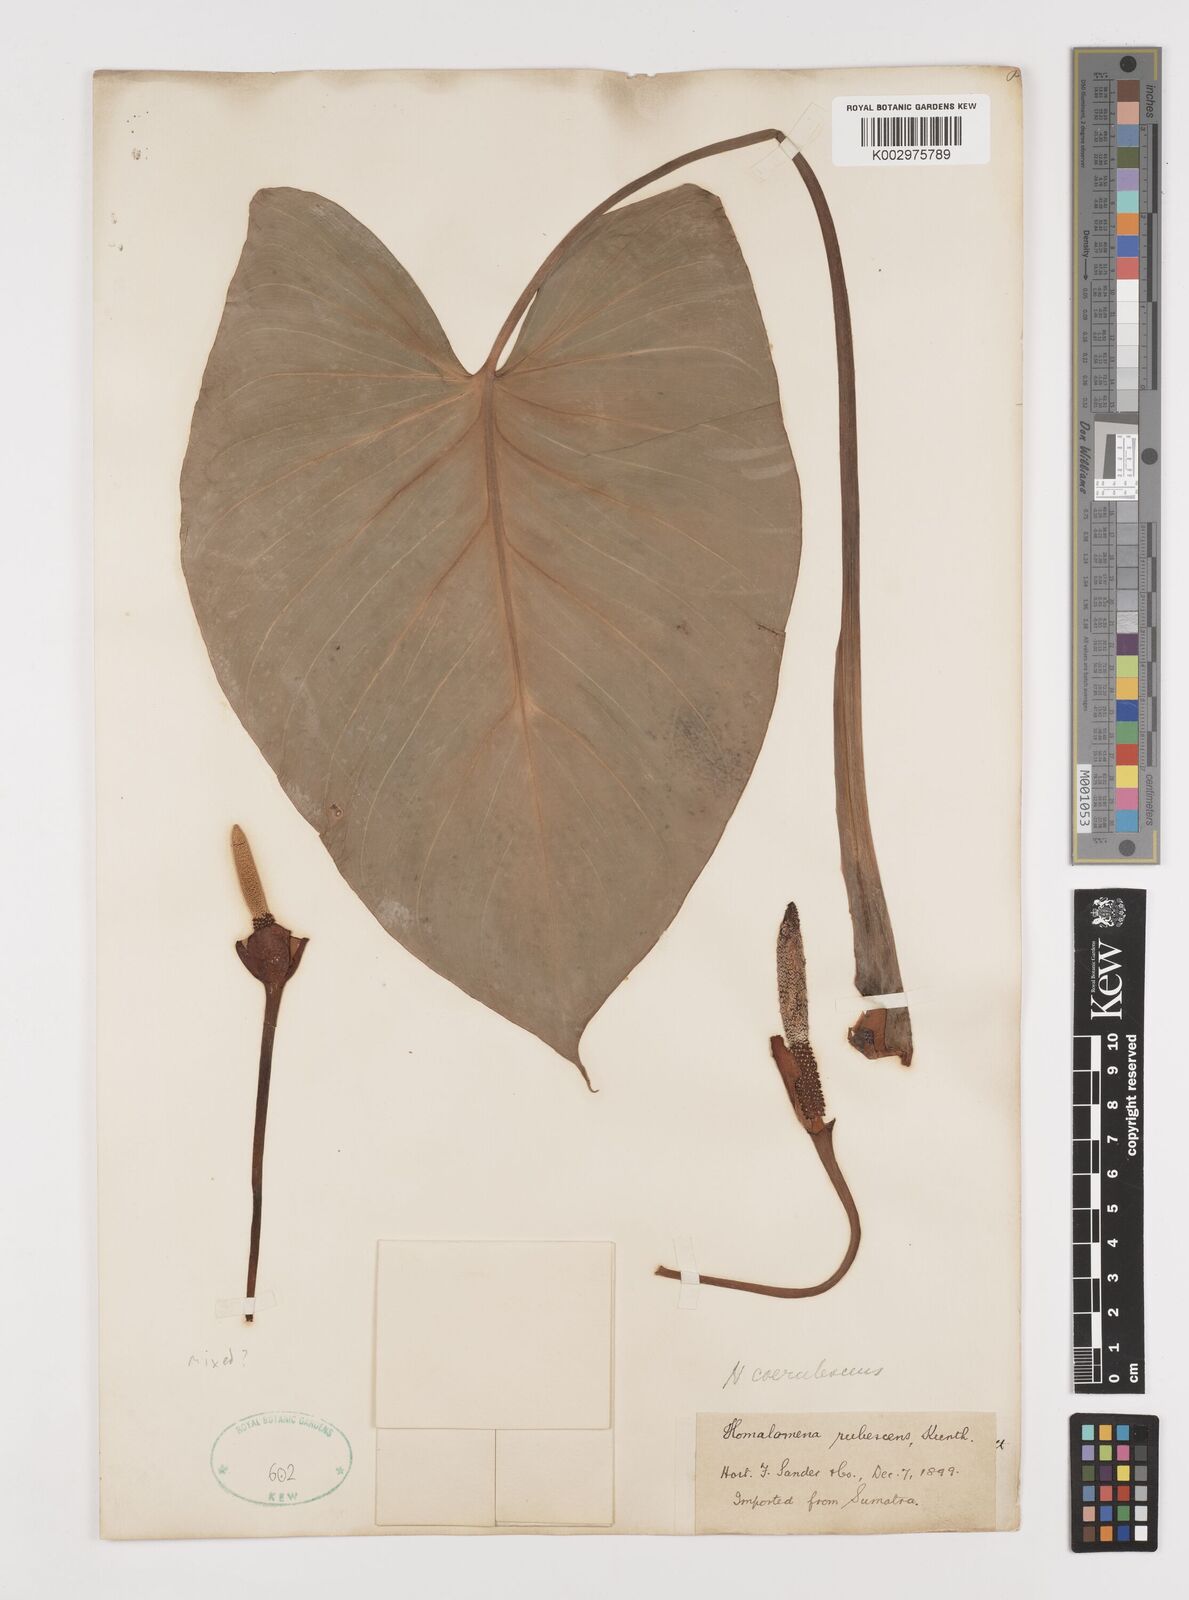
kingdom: Plantae
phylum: Tracheophyta
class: Liliopsida
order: Alismatales
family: Araceae
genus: Homalomena
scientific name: Homalomena rubescens
